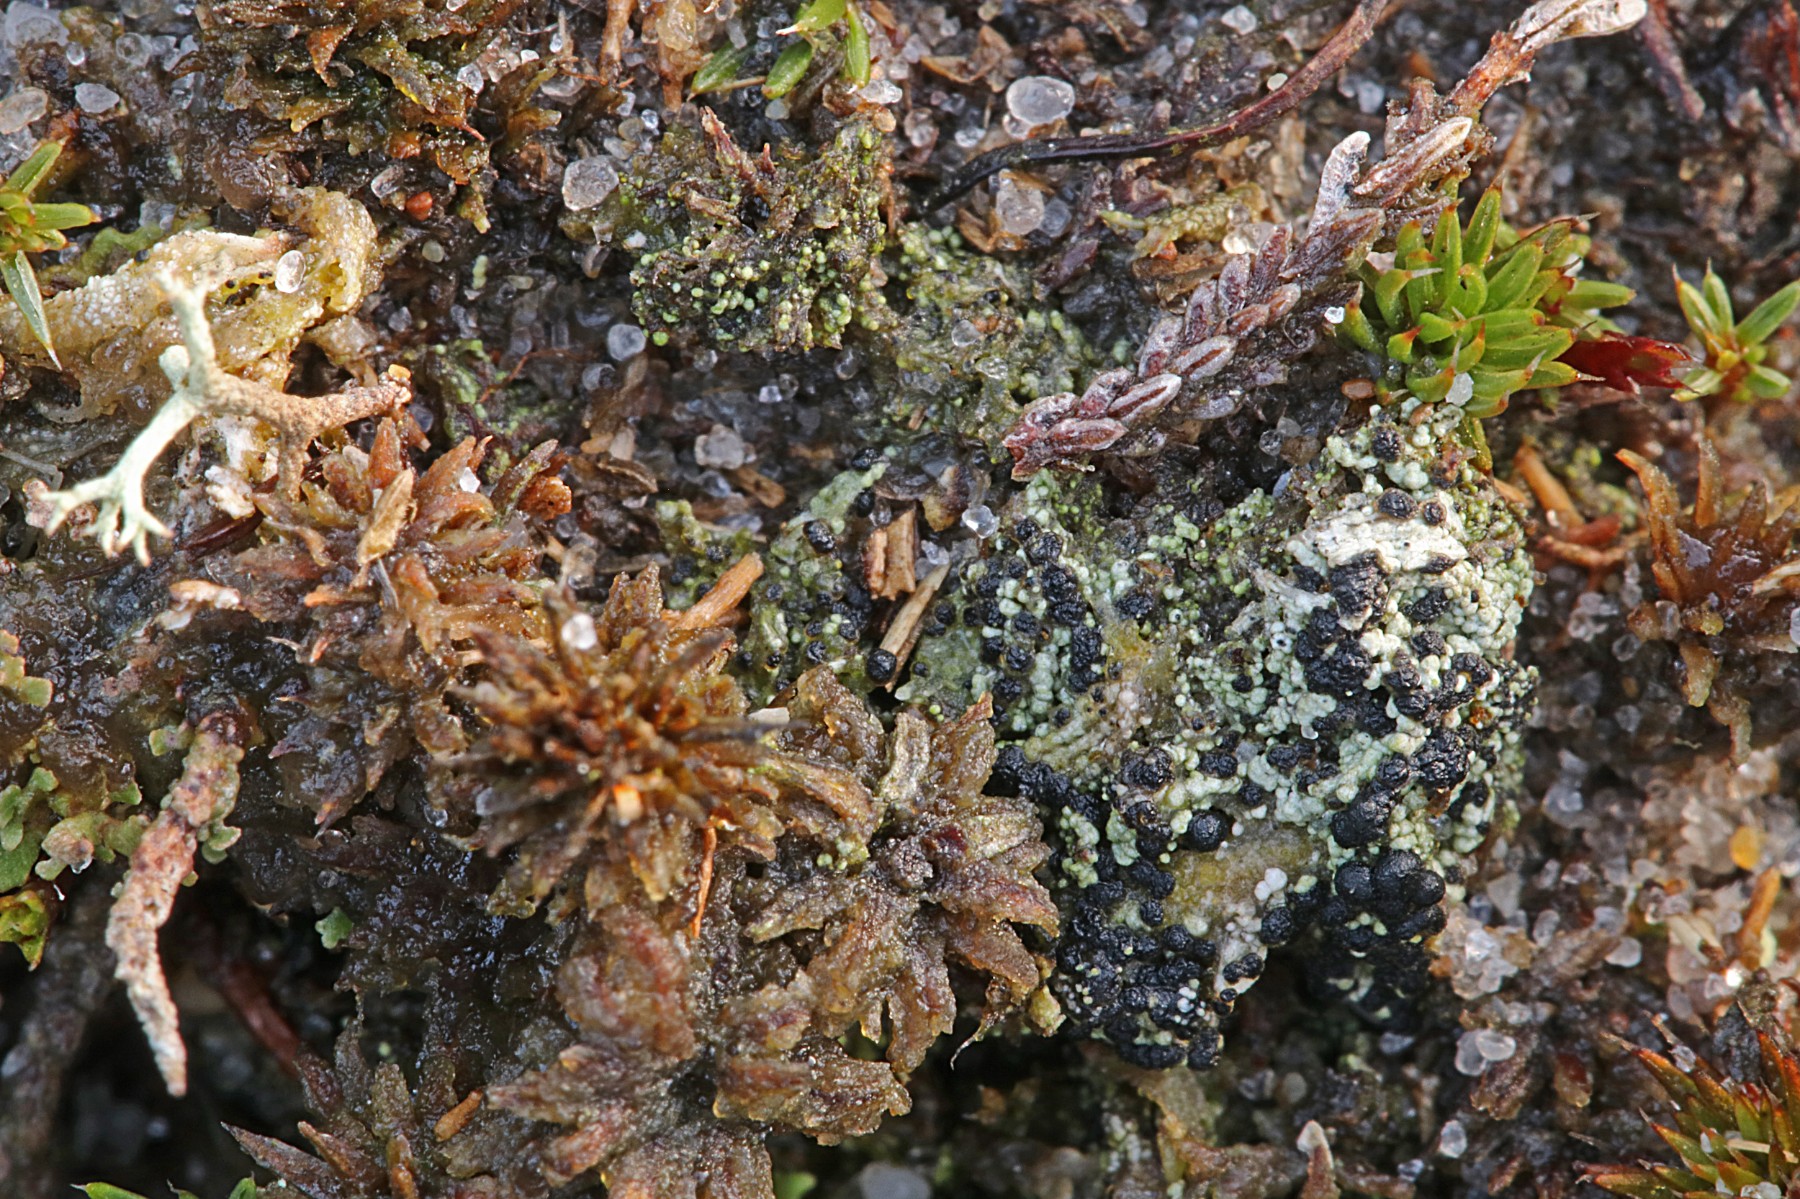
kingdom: Fungi
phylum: Ascomycota
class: Lecanoromycetes
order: Lecanorales
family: Byssolomataceae
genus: Micarea
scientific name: Micarea lignaria
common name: tørve-knaplav
